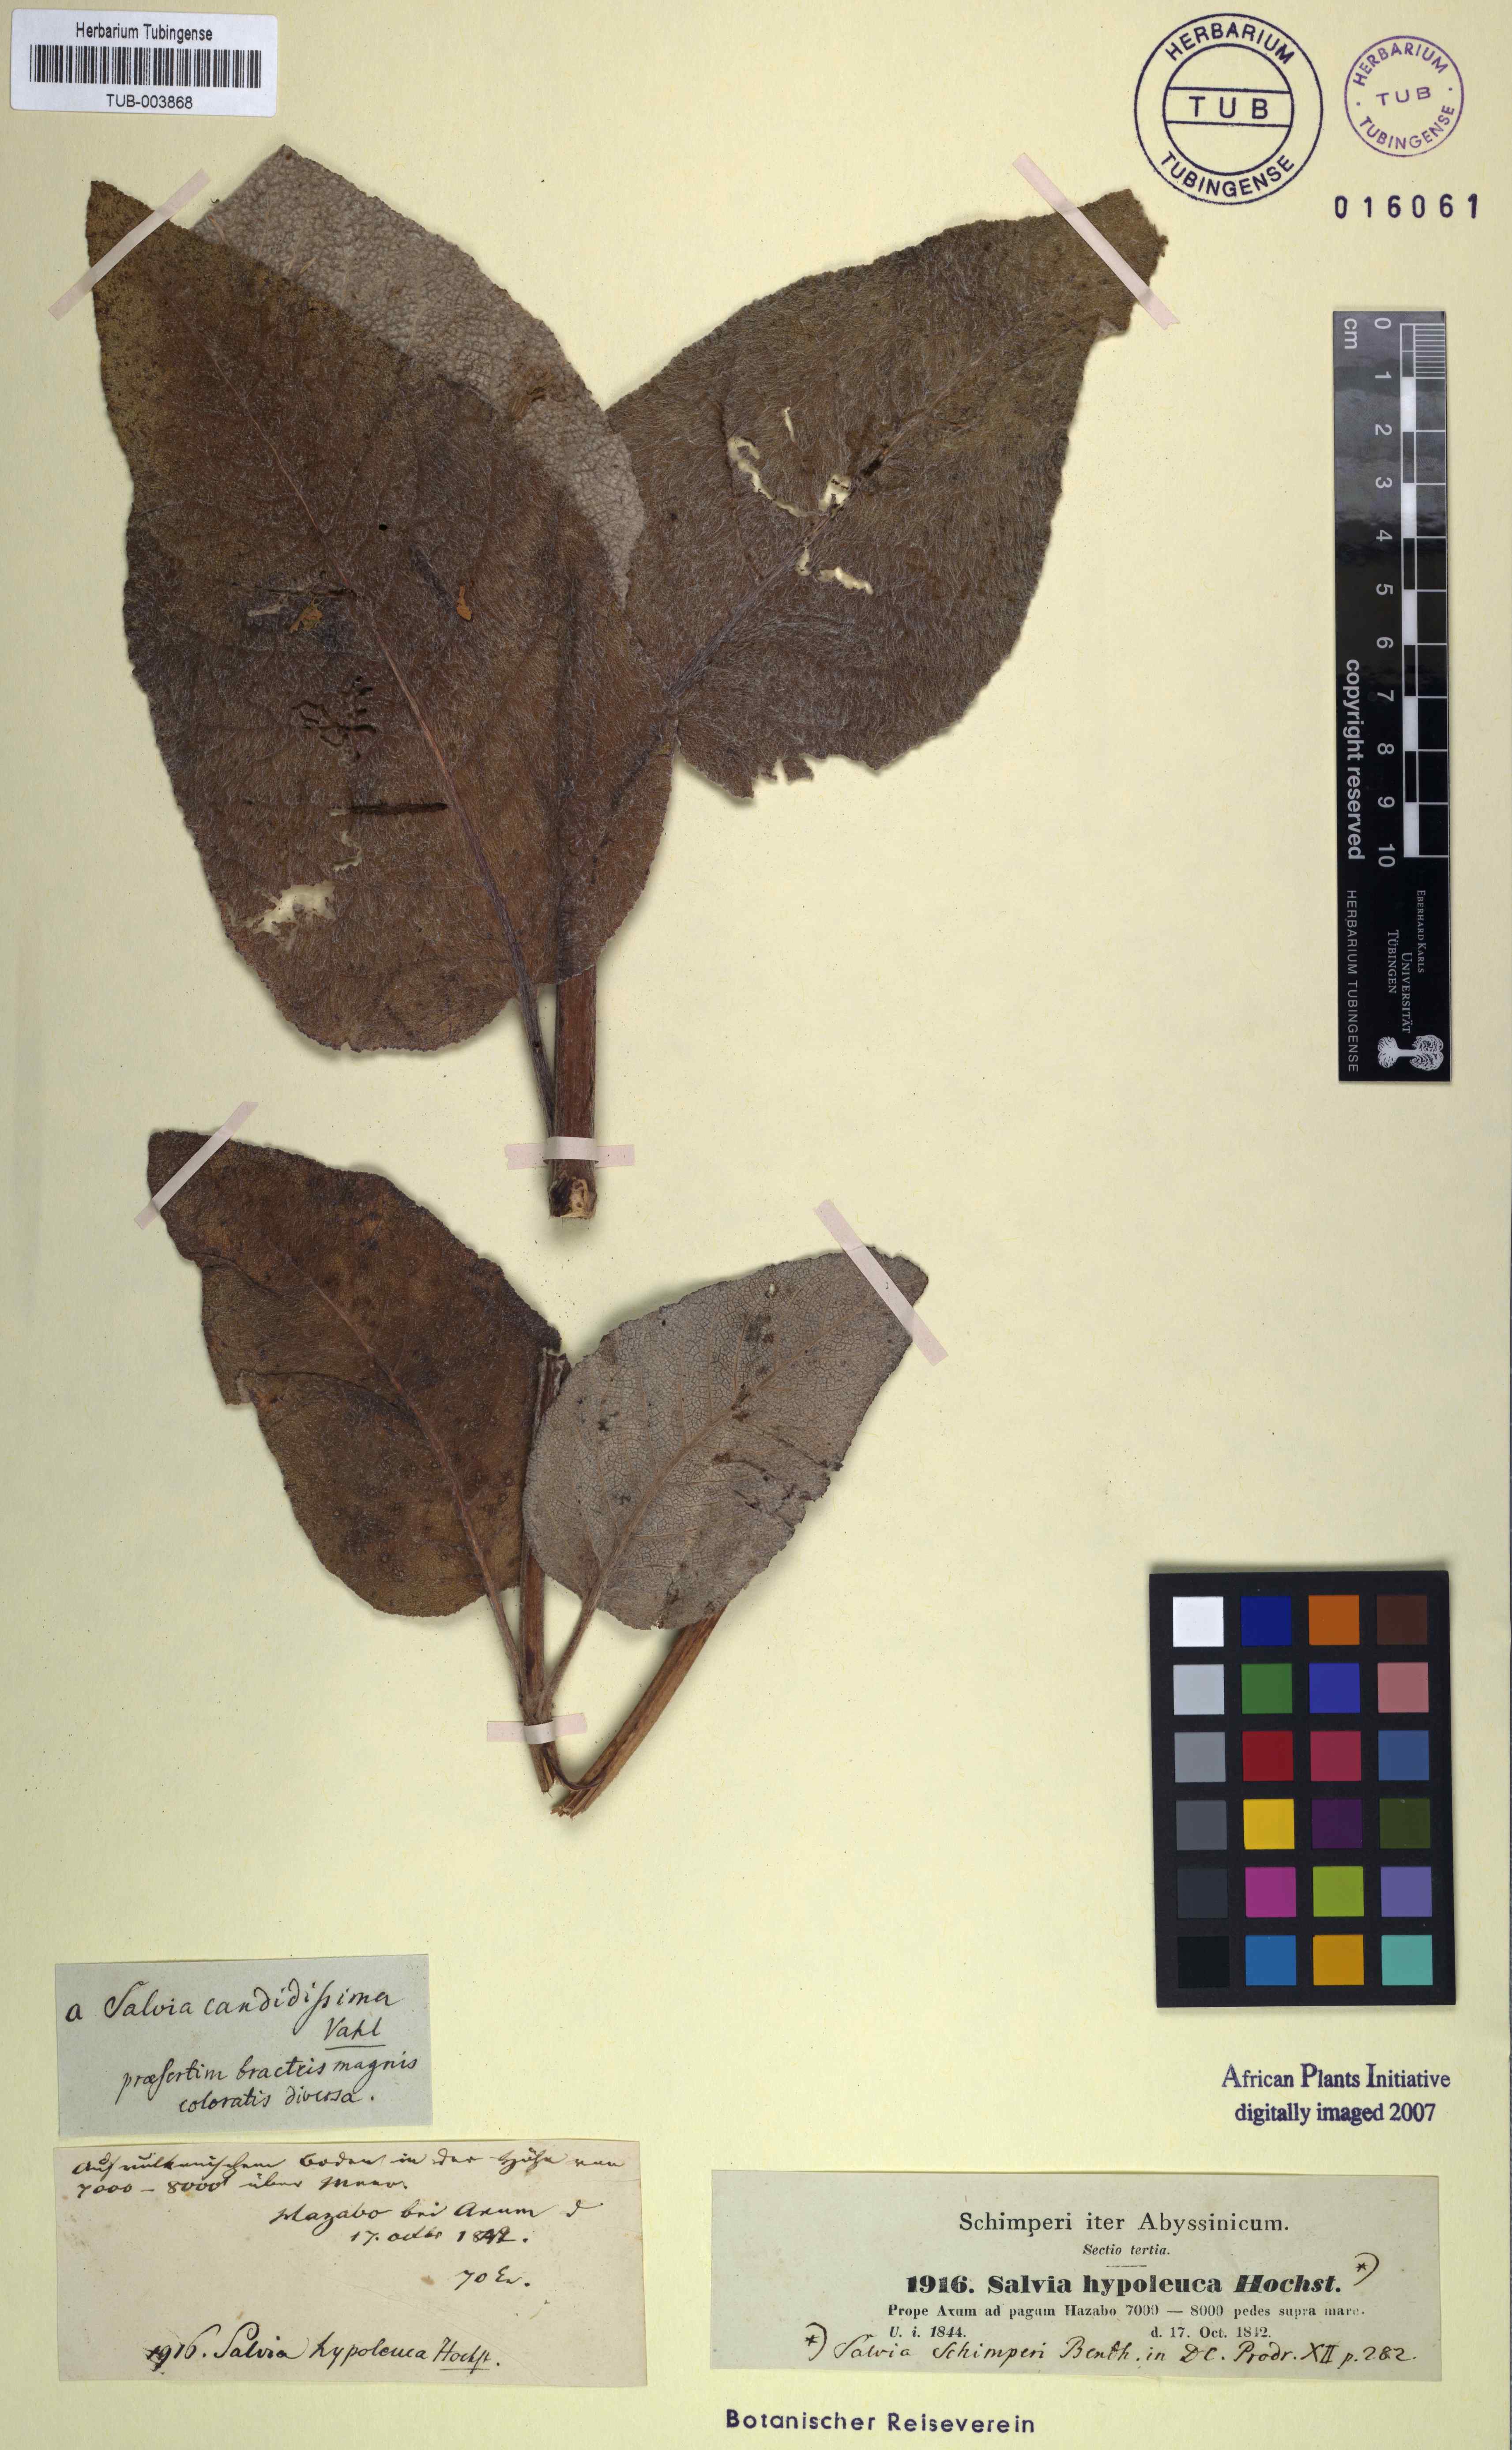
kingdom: Plantae
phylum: Tracheophyta
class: Magnoliopsida
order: Lamiales
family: Lamiaceae
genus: Salvia
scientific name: Salvia schimperi
